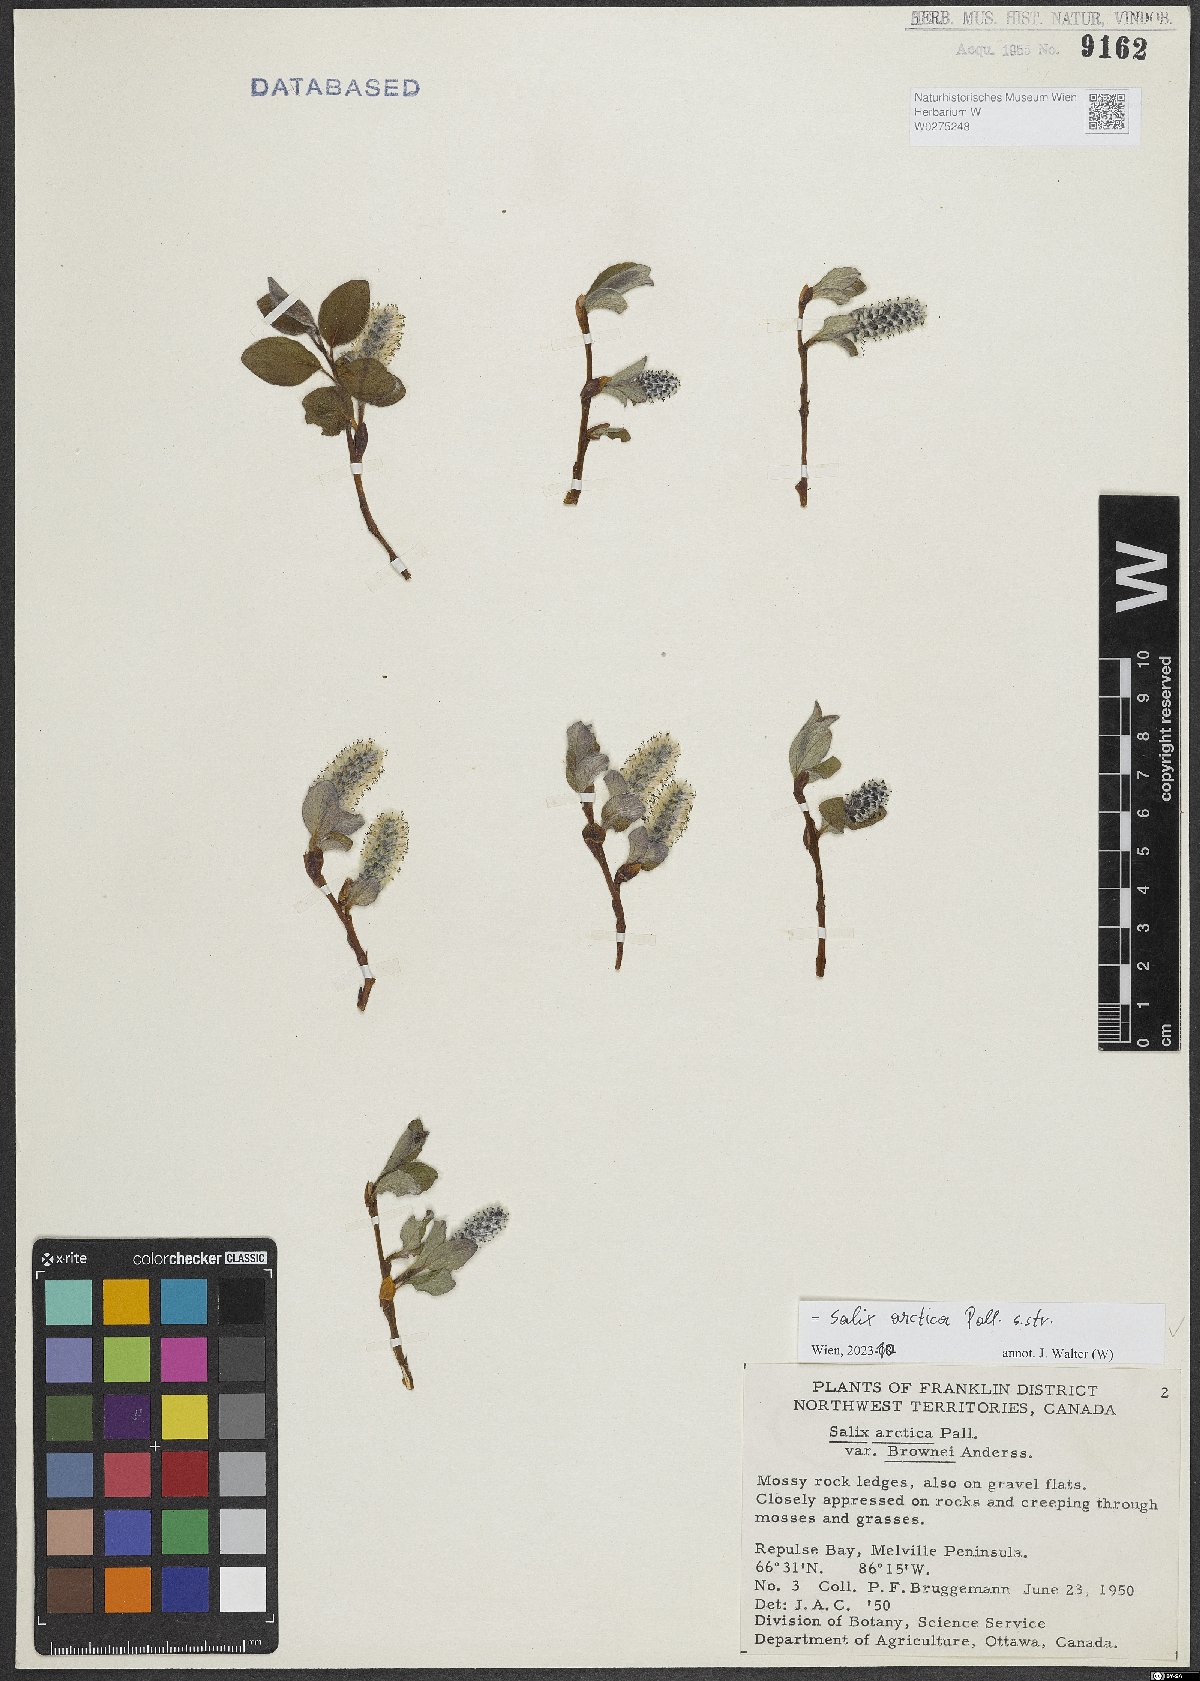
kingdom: Plantae
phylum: Tracheophyta
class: Magnoliopsida
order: Malpighiales
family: Salicaceae
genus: Salix
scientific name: Salix arctica
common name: Arctic willow
